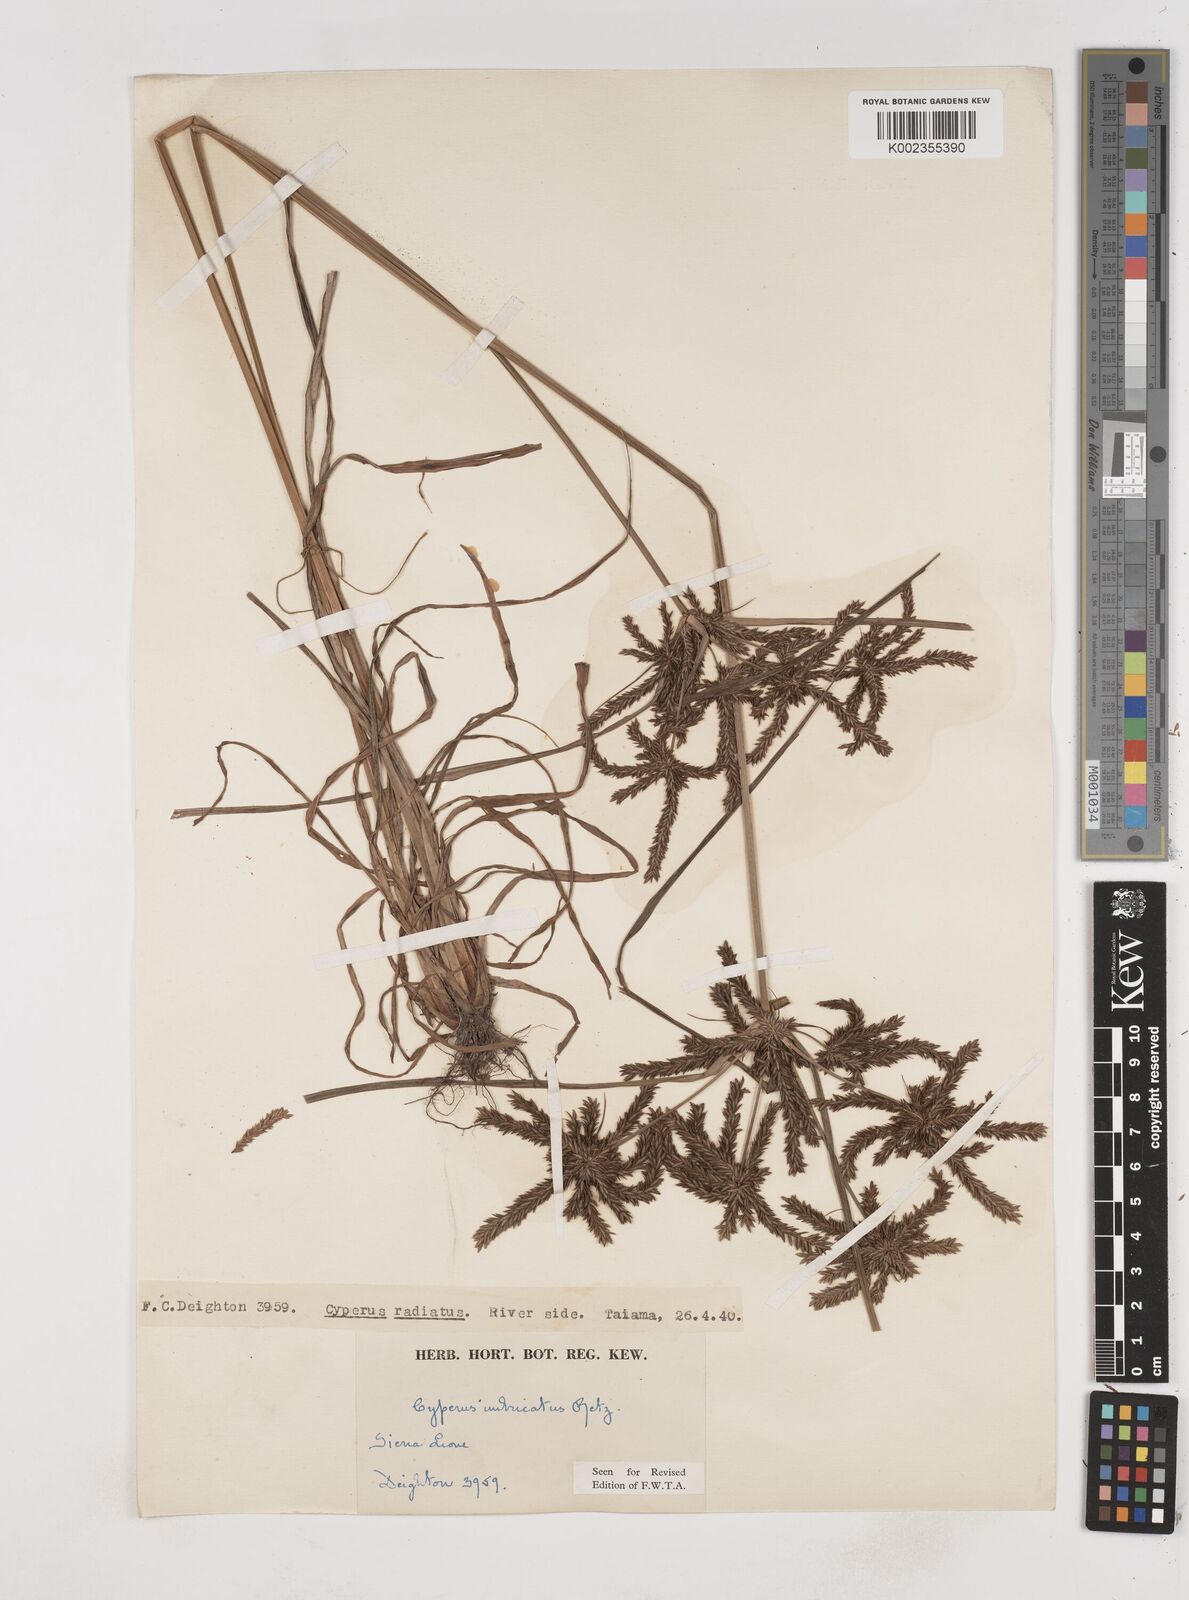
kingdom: Plantae
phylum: Tracheophyta
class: Liliopsida
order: Poales
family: Cyperaceae
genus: Cyperus
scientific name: Cyperus imbricatus
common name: Shingle flatsedge
